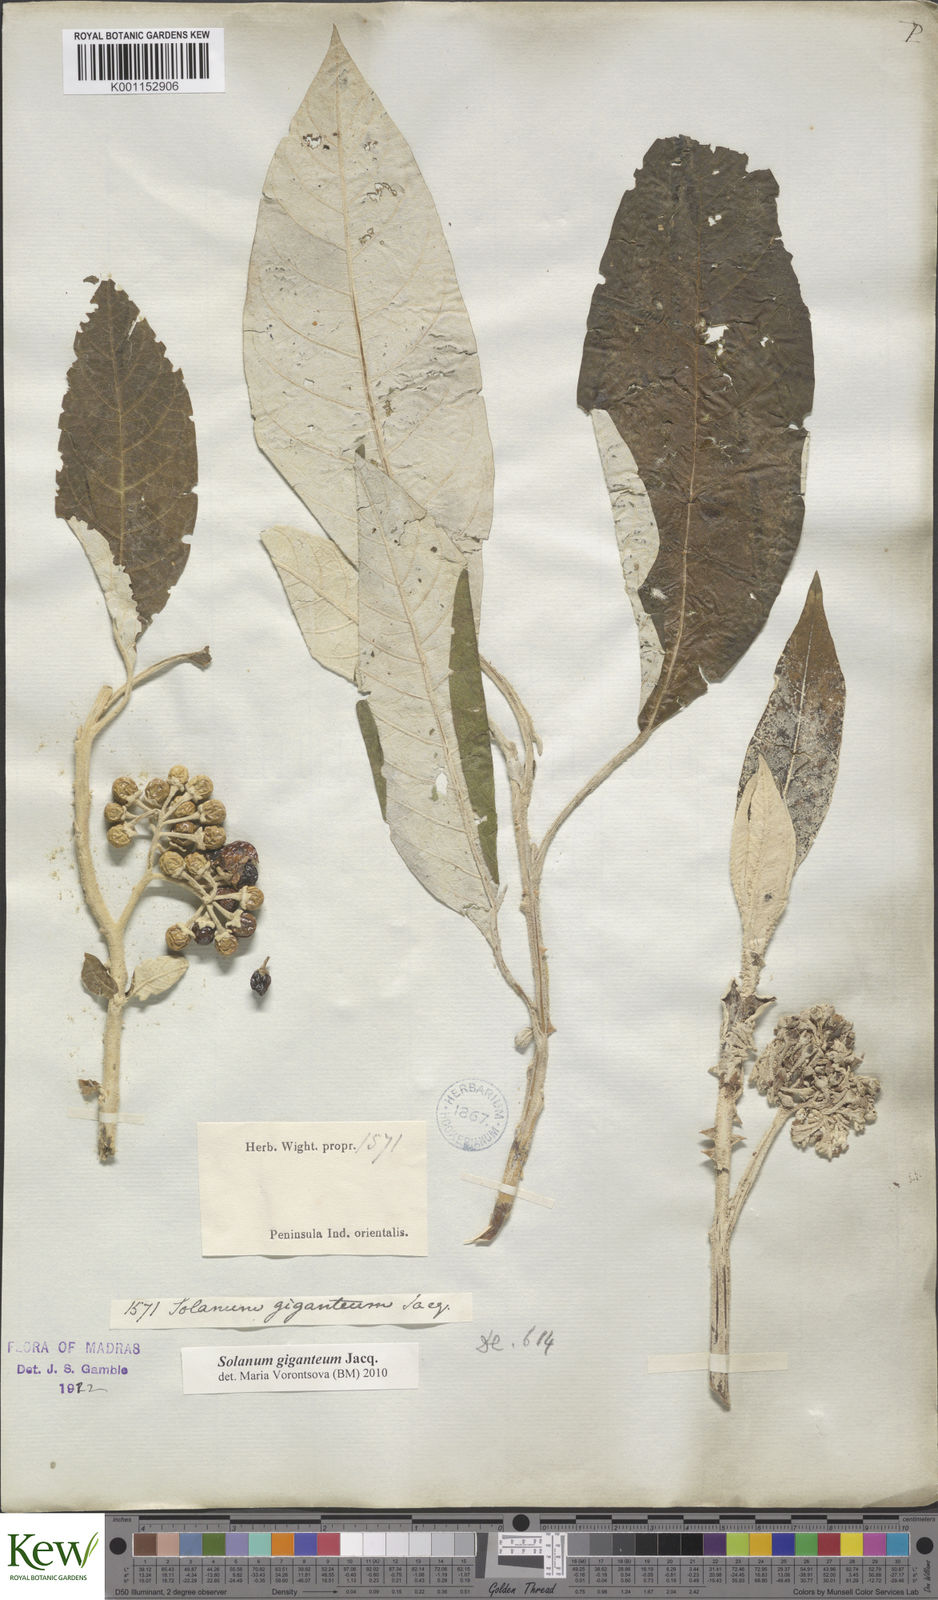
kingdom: Plantae
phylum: Tracheophyta
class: Magnoliopsida
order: Solanales
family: Solanaceae
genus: Solanum
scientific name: Solanum giganteum
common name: Healing-leaf-tree
